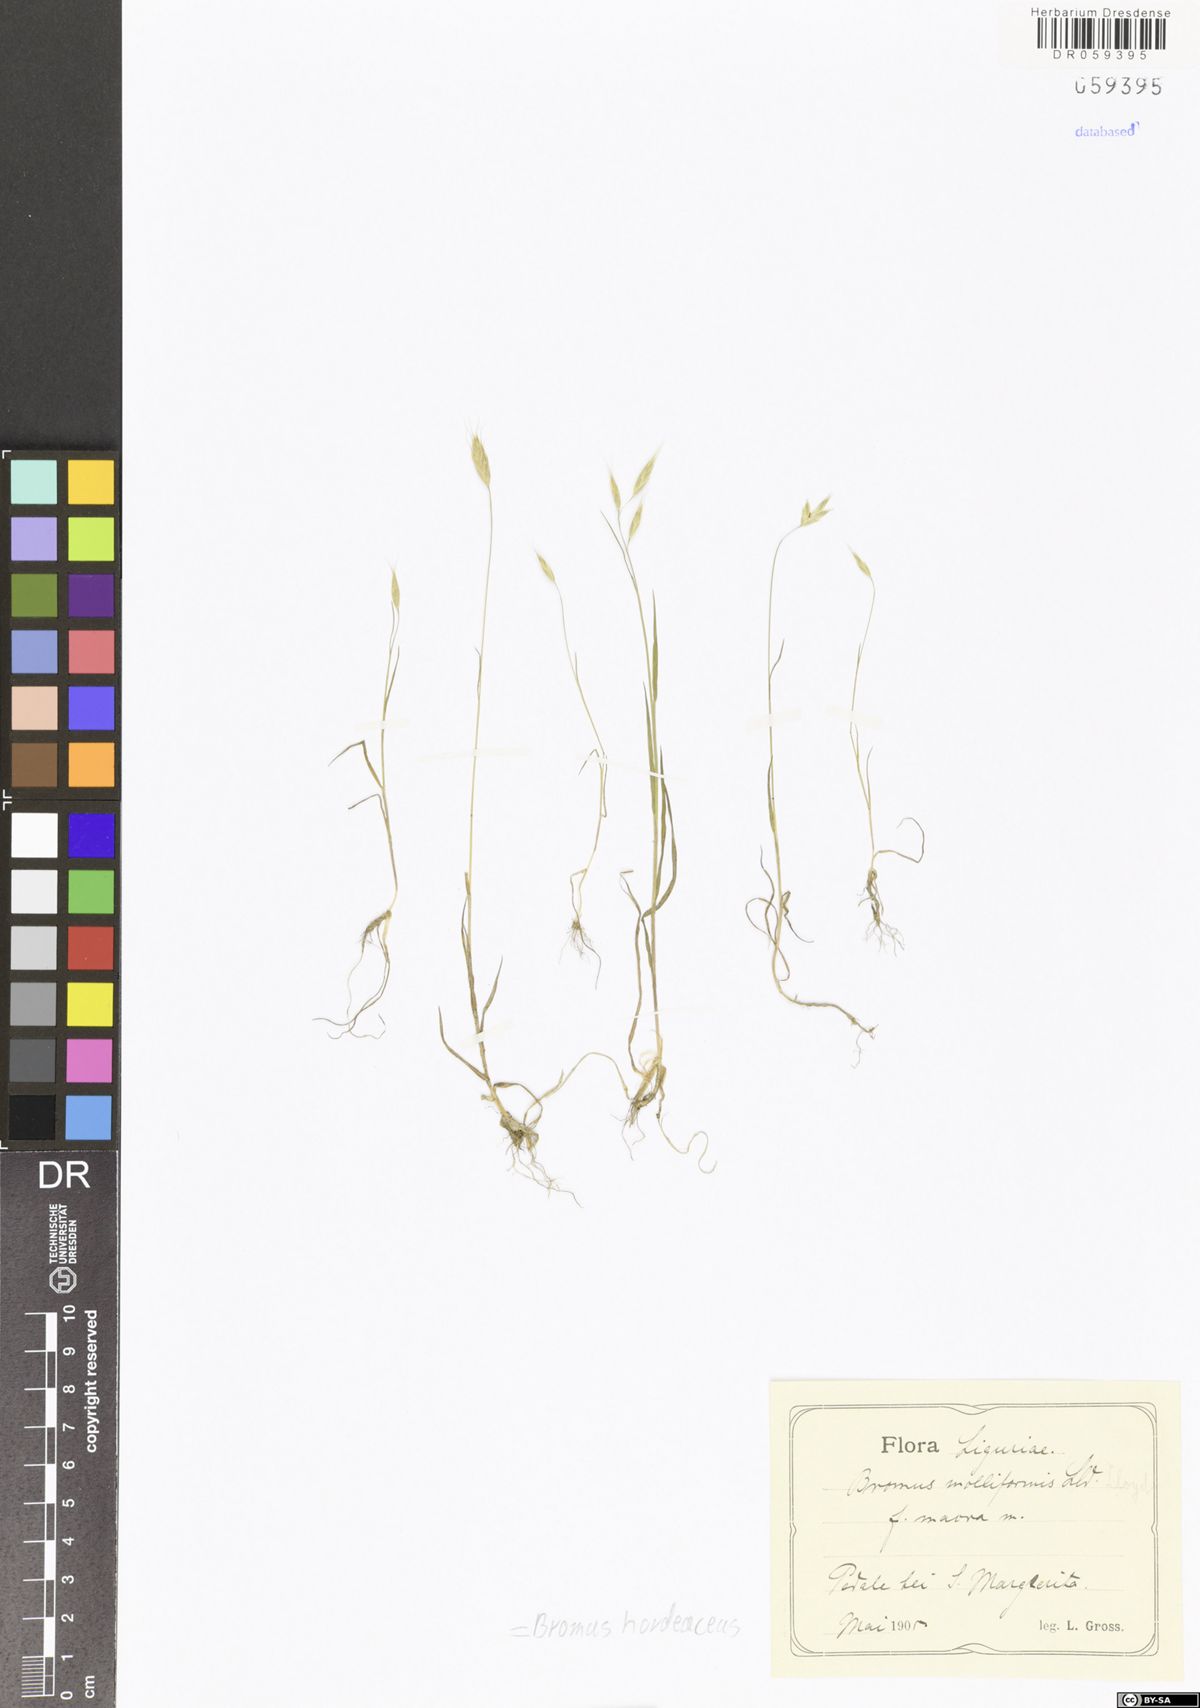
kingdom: Plantae
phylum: Tracheophyta
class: Liliopsida
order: Poales
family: Poaceae
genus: Bromus
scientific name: Bromus hordeaceus
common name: Soft brome
